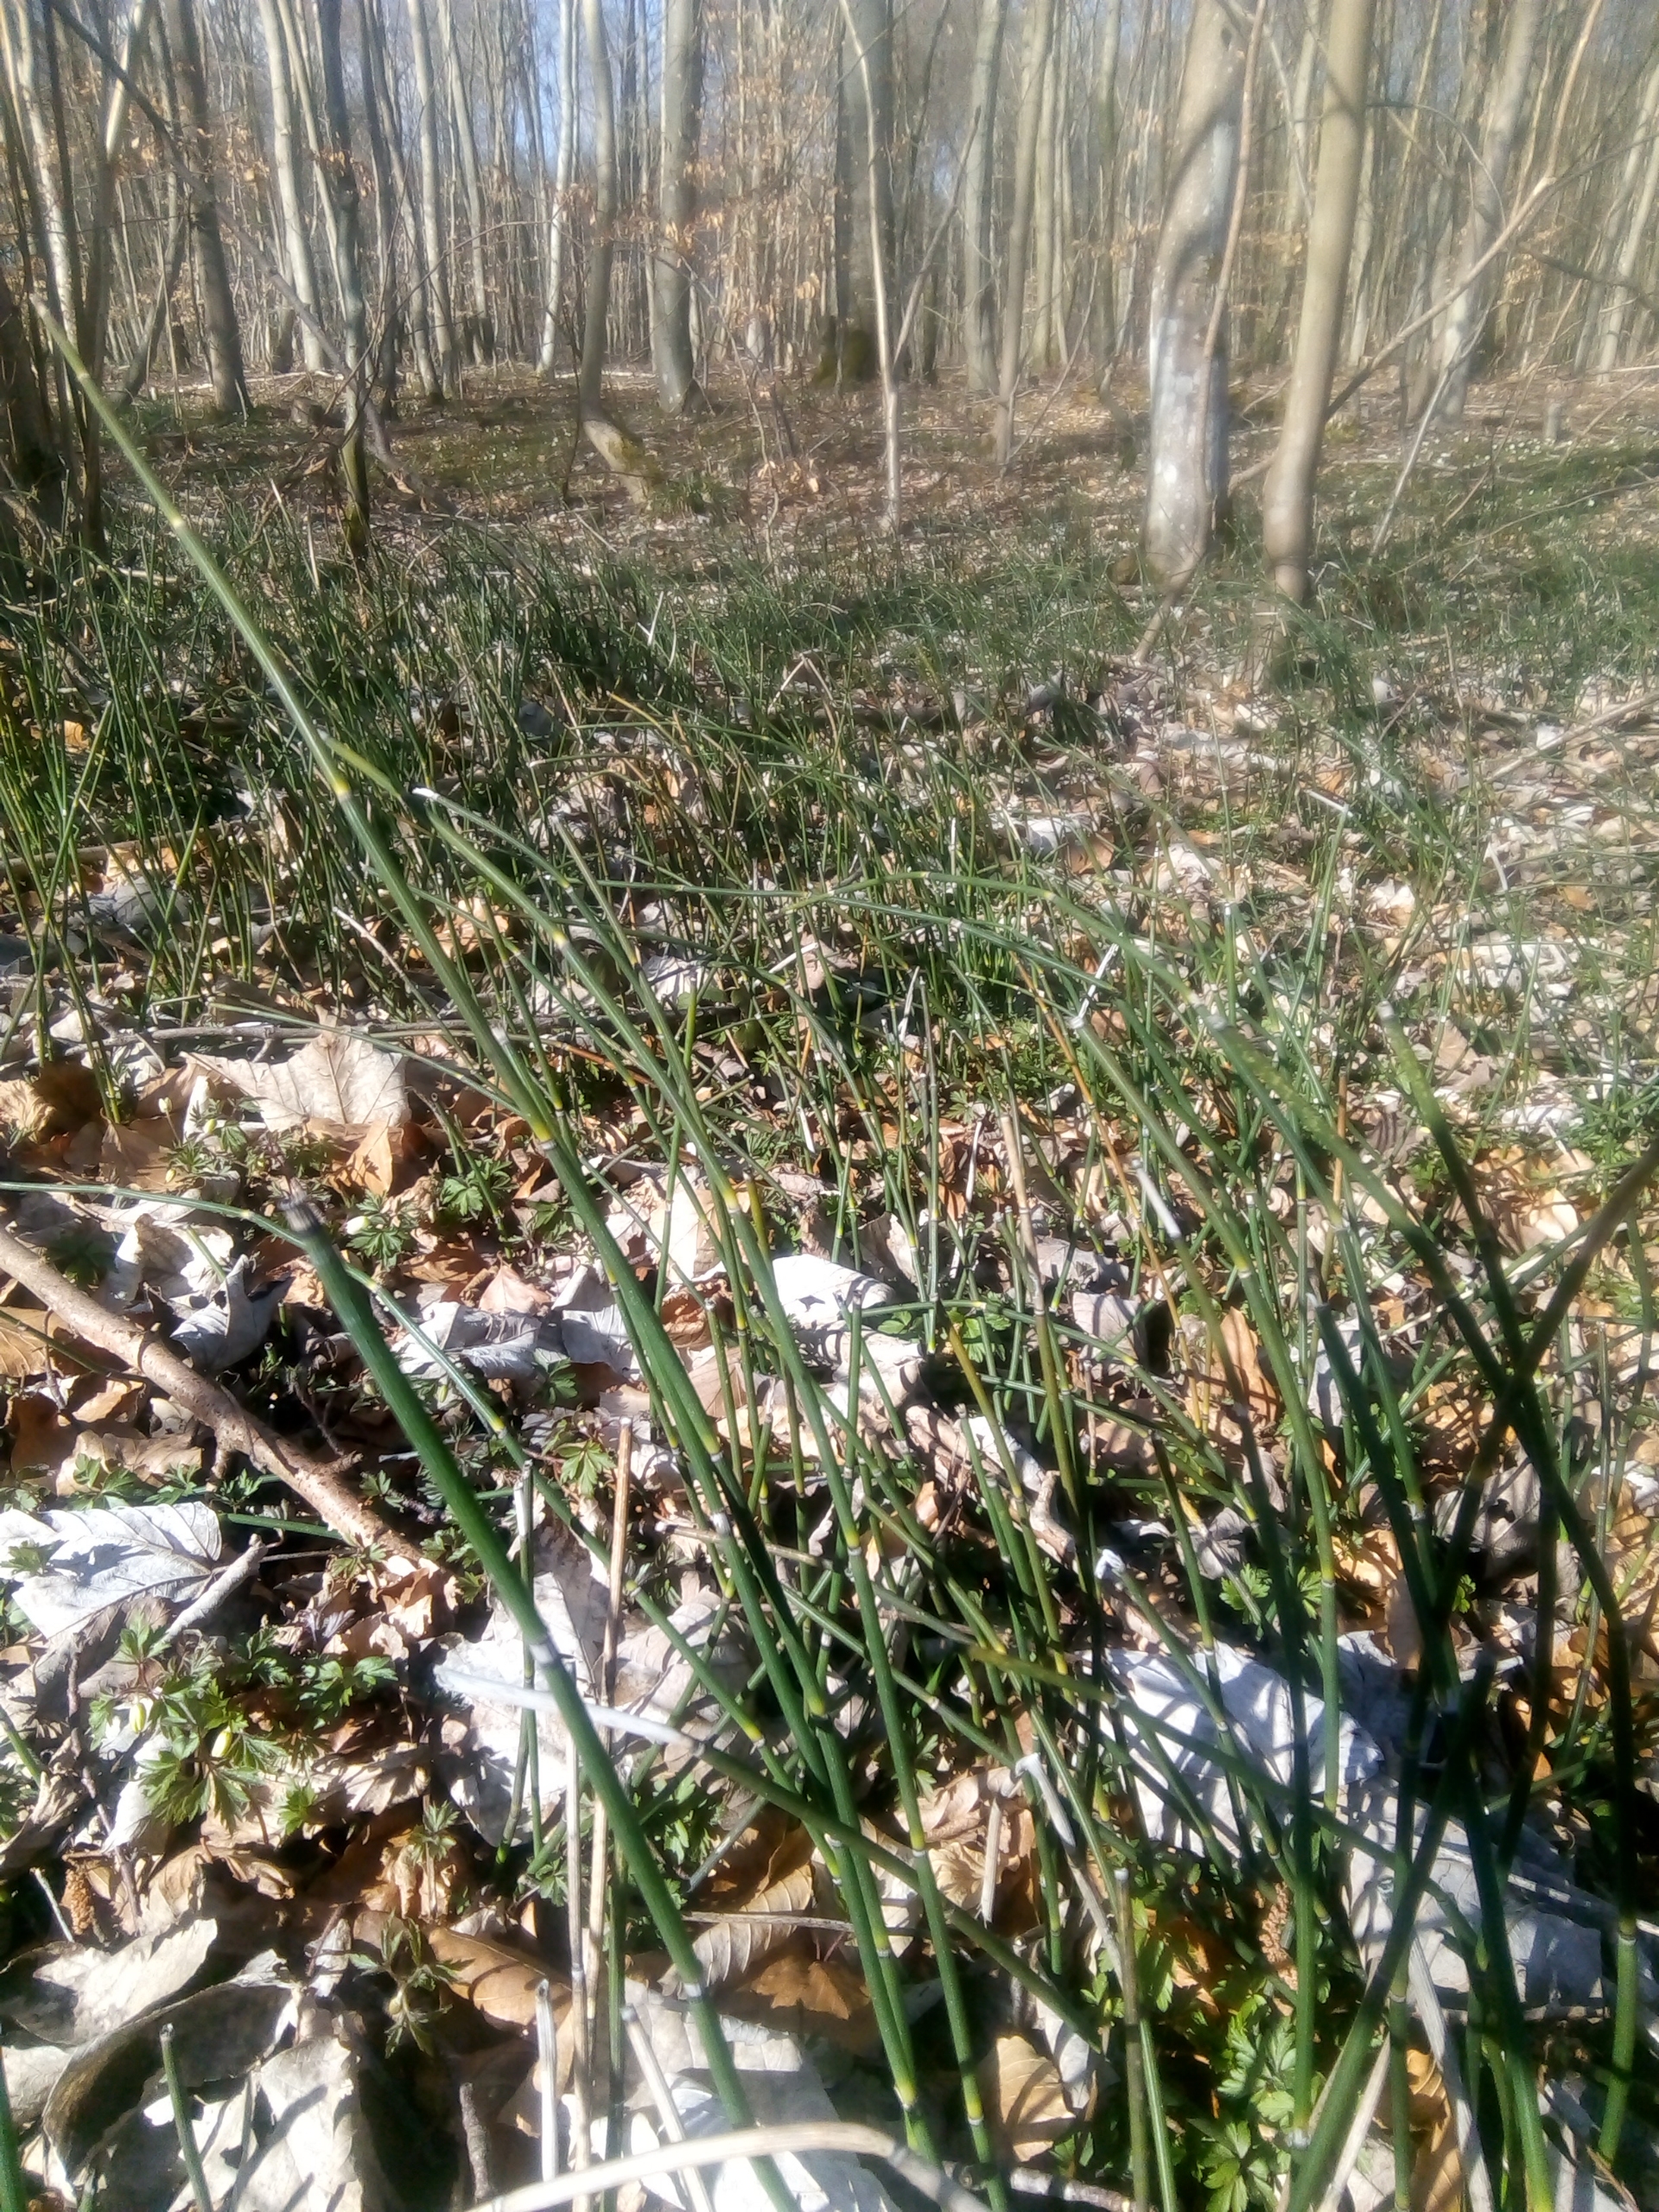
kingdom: Plantae
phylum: Tracheophyta
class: Polypodiopsida
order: Equisetales
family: Equisetaceae
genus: Equisetum
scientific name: Equisetum hyemale
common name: Skavgræs
